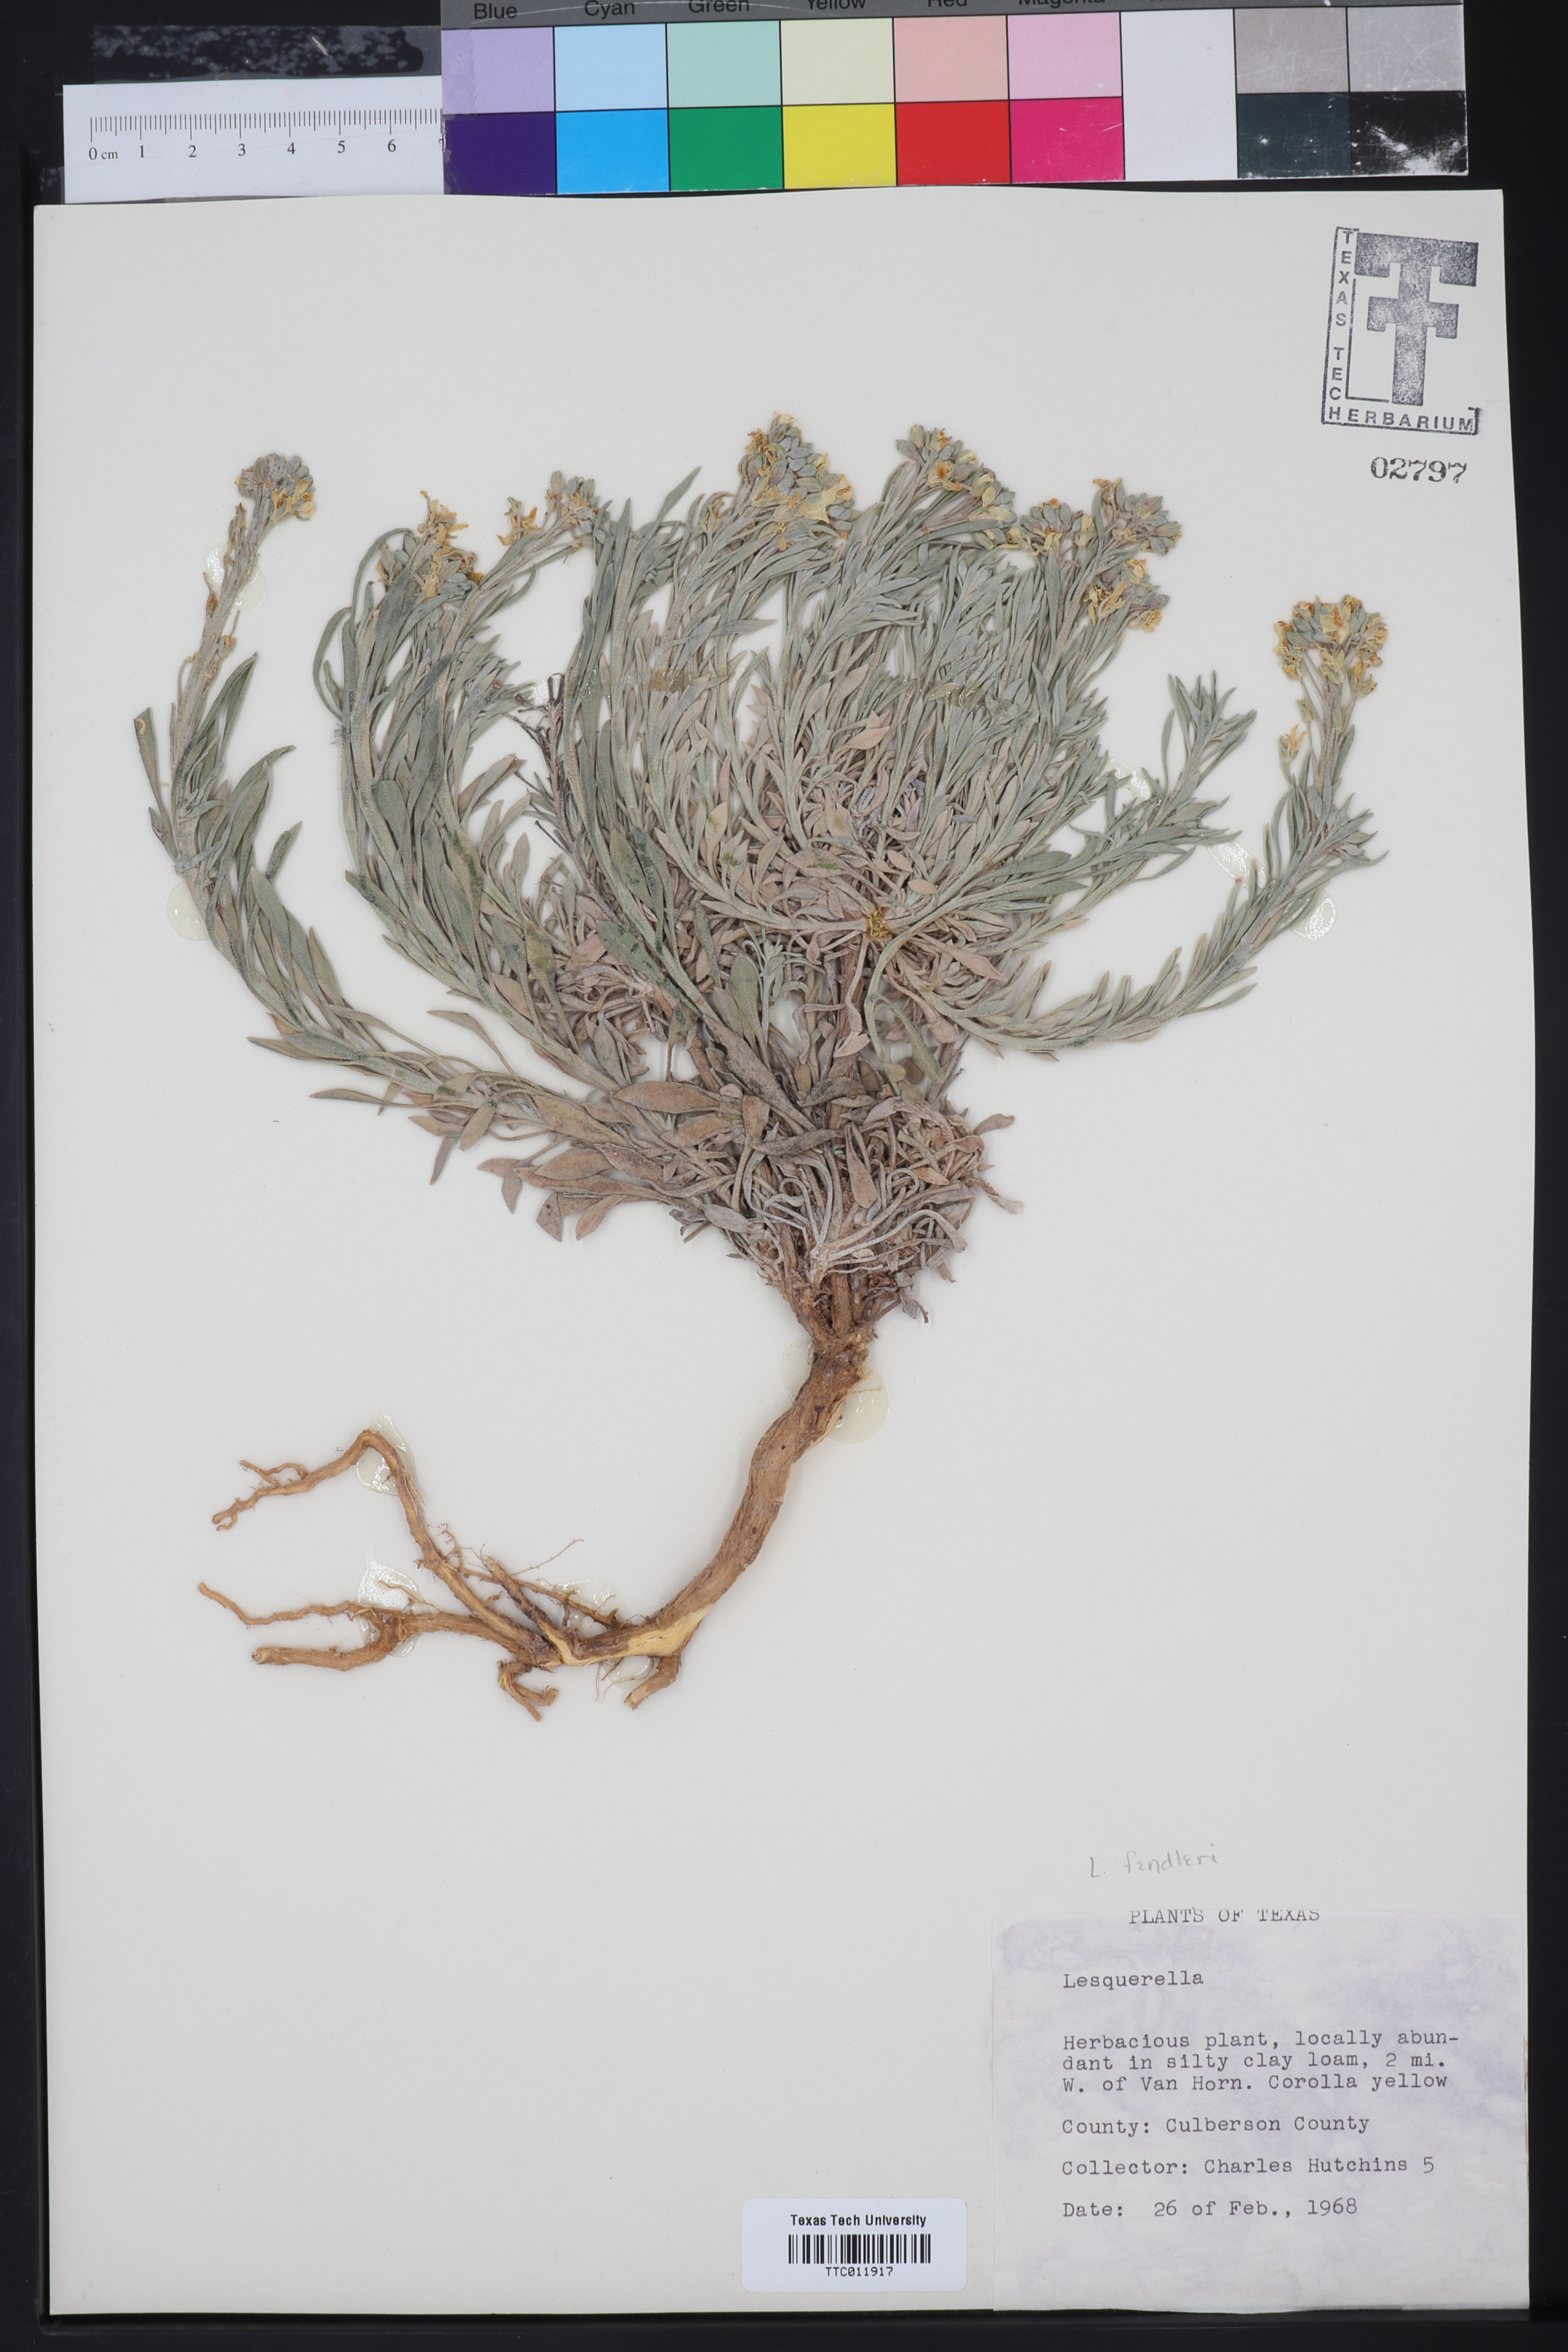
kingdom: Plantae
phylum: Tracheophyta
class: Magnoliopsida
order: Brassicales
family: Brassicaceae
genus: Physaria
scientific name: Physaria fendleri
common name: Fendler's bladderpod
